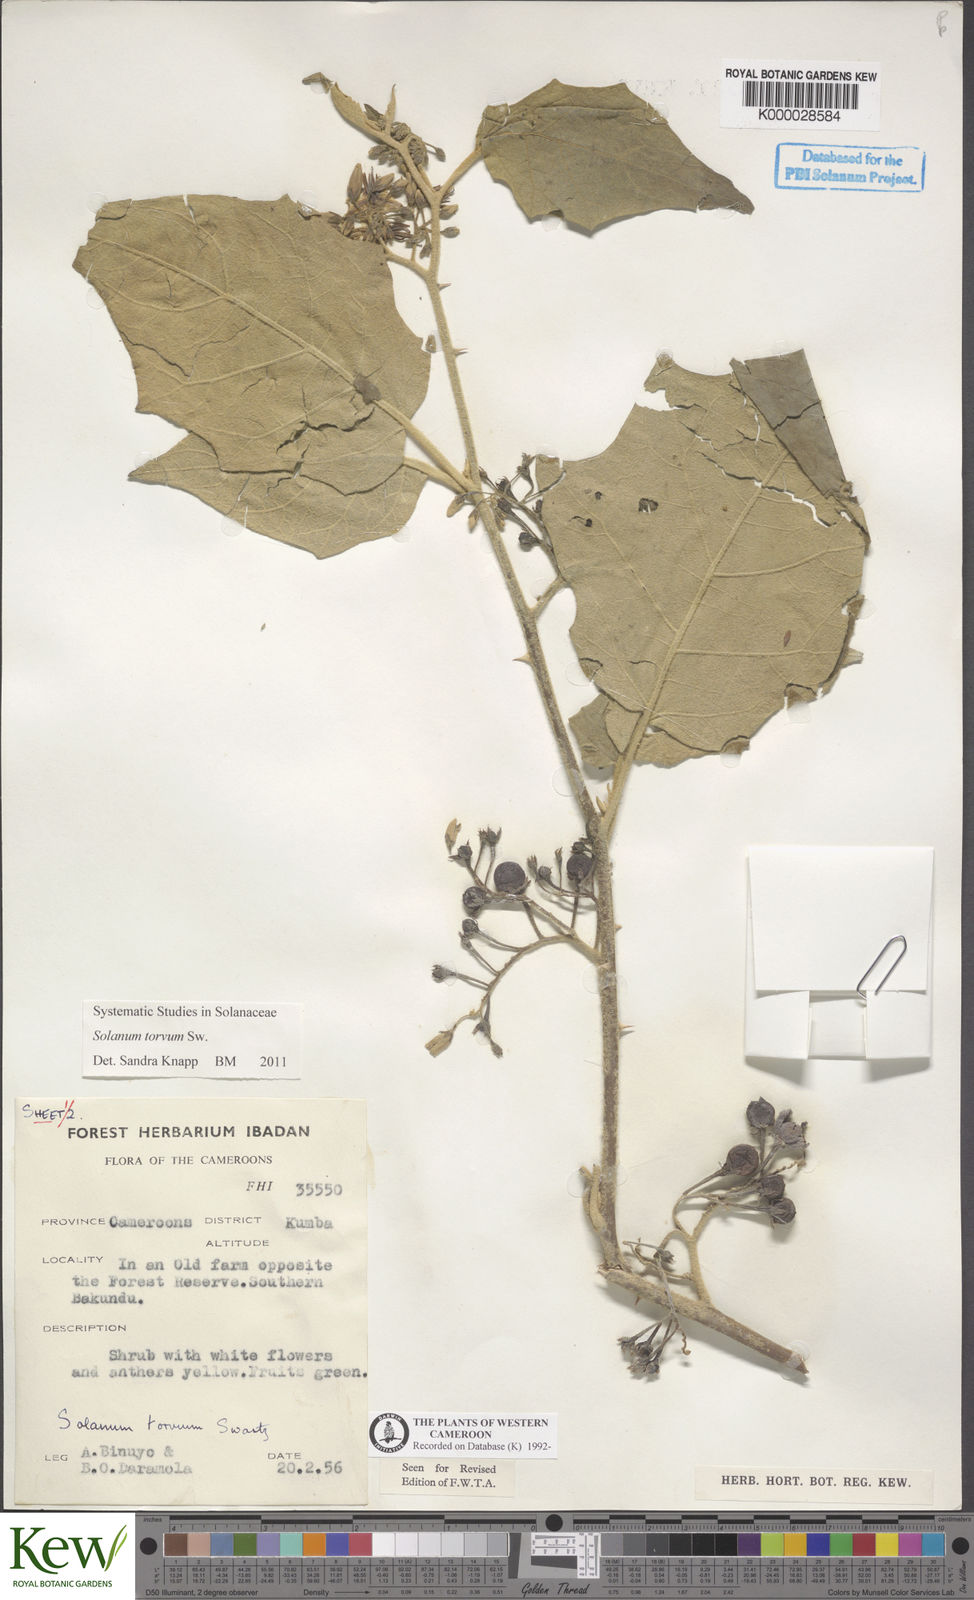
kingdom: Plantae
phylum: Tracheophyta
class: Magnoliopsida
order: Solanales
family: Solanaceae
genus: Solanum
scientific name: Solanum torvum
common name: Turkey berry
